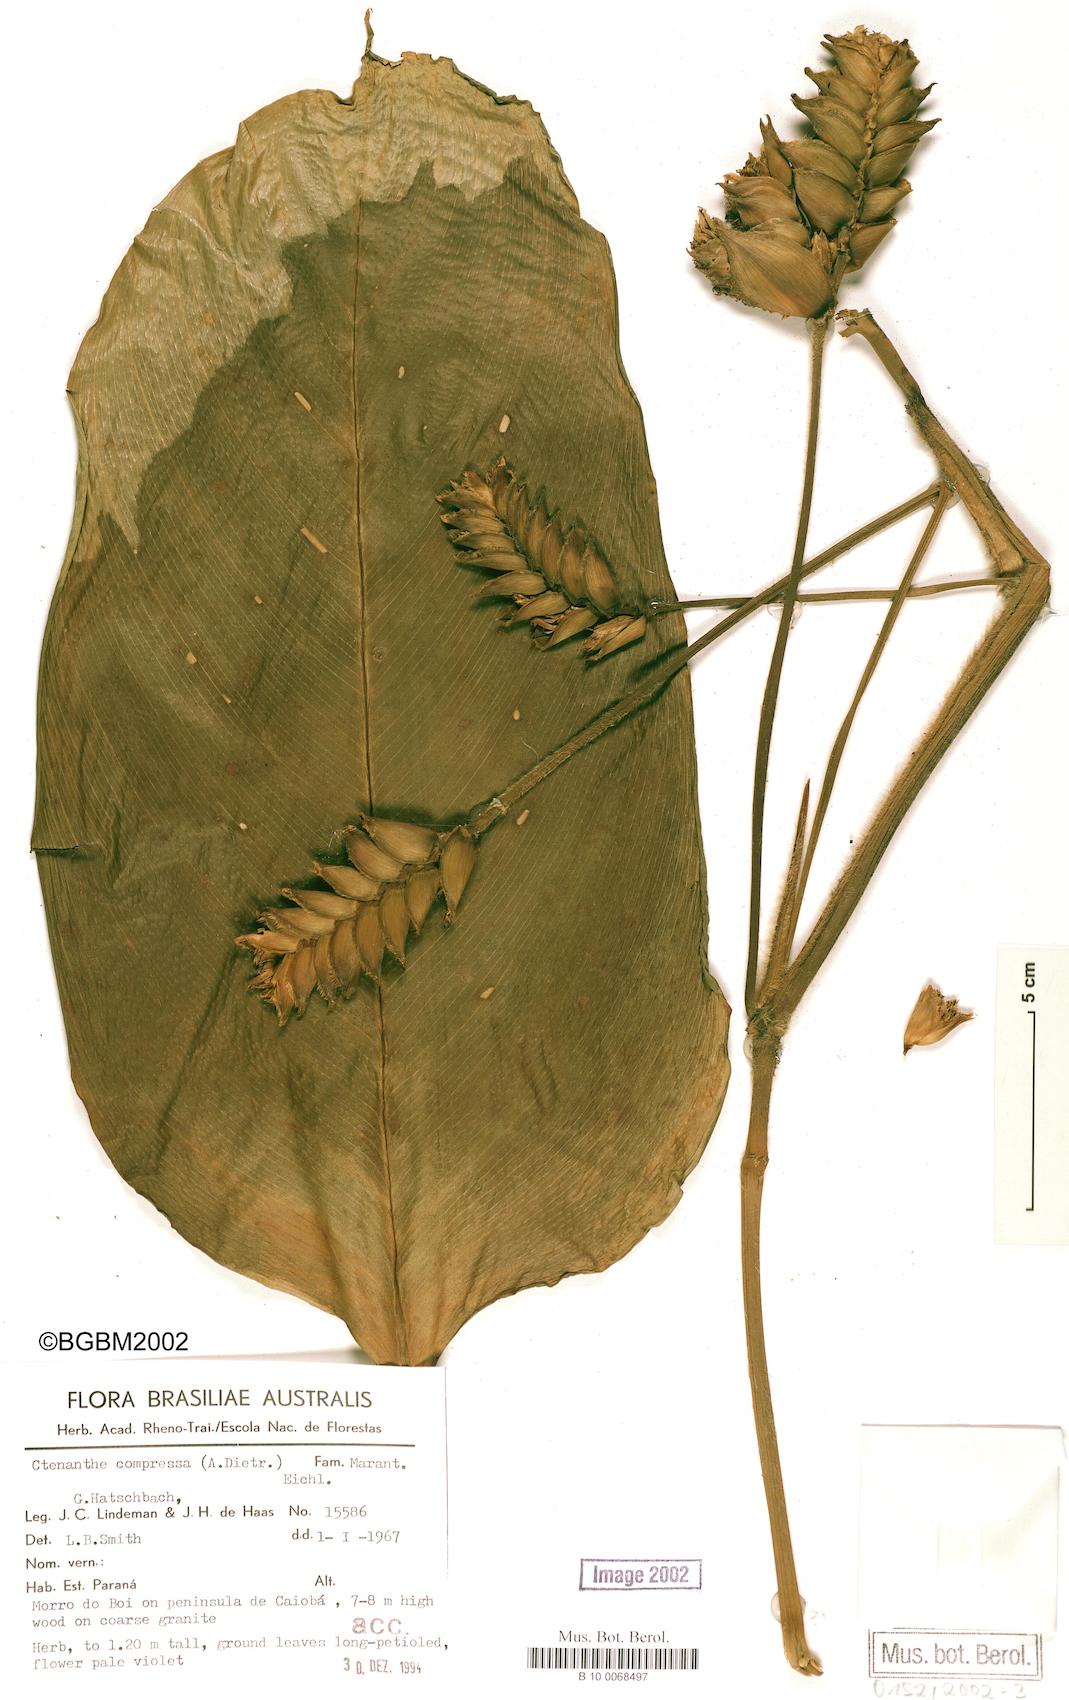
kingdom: Plantae
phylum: Tracheophyta
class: Liliopsida
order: Zingiberales
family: Marantaceae
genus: Ctenanthe
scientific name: Ctenanthe compressa
